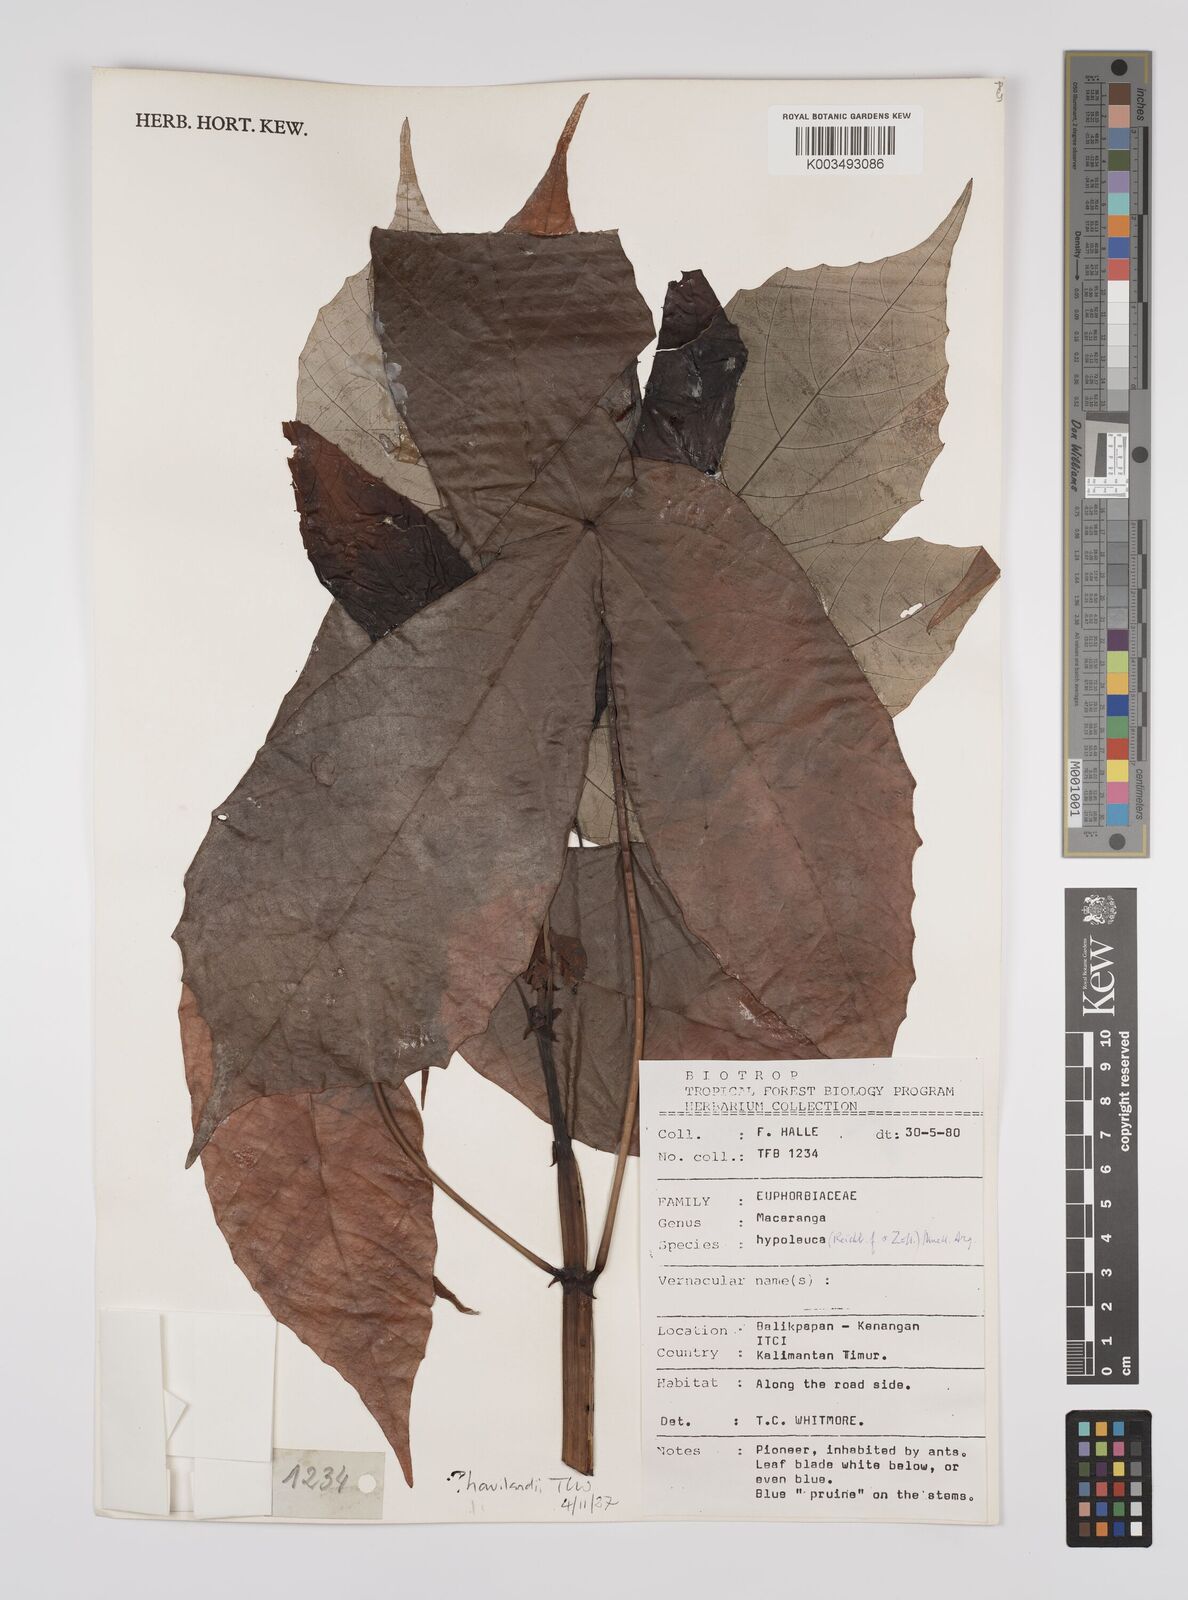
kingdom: Plantae
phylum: Tracheophyta
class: Magnoliopsida
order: Malpighiales
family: Euphorbiaceae
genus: Macaranga
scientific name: Macaranga hypoleuca
